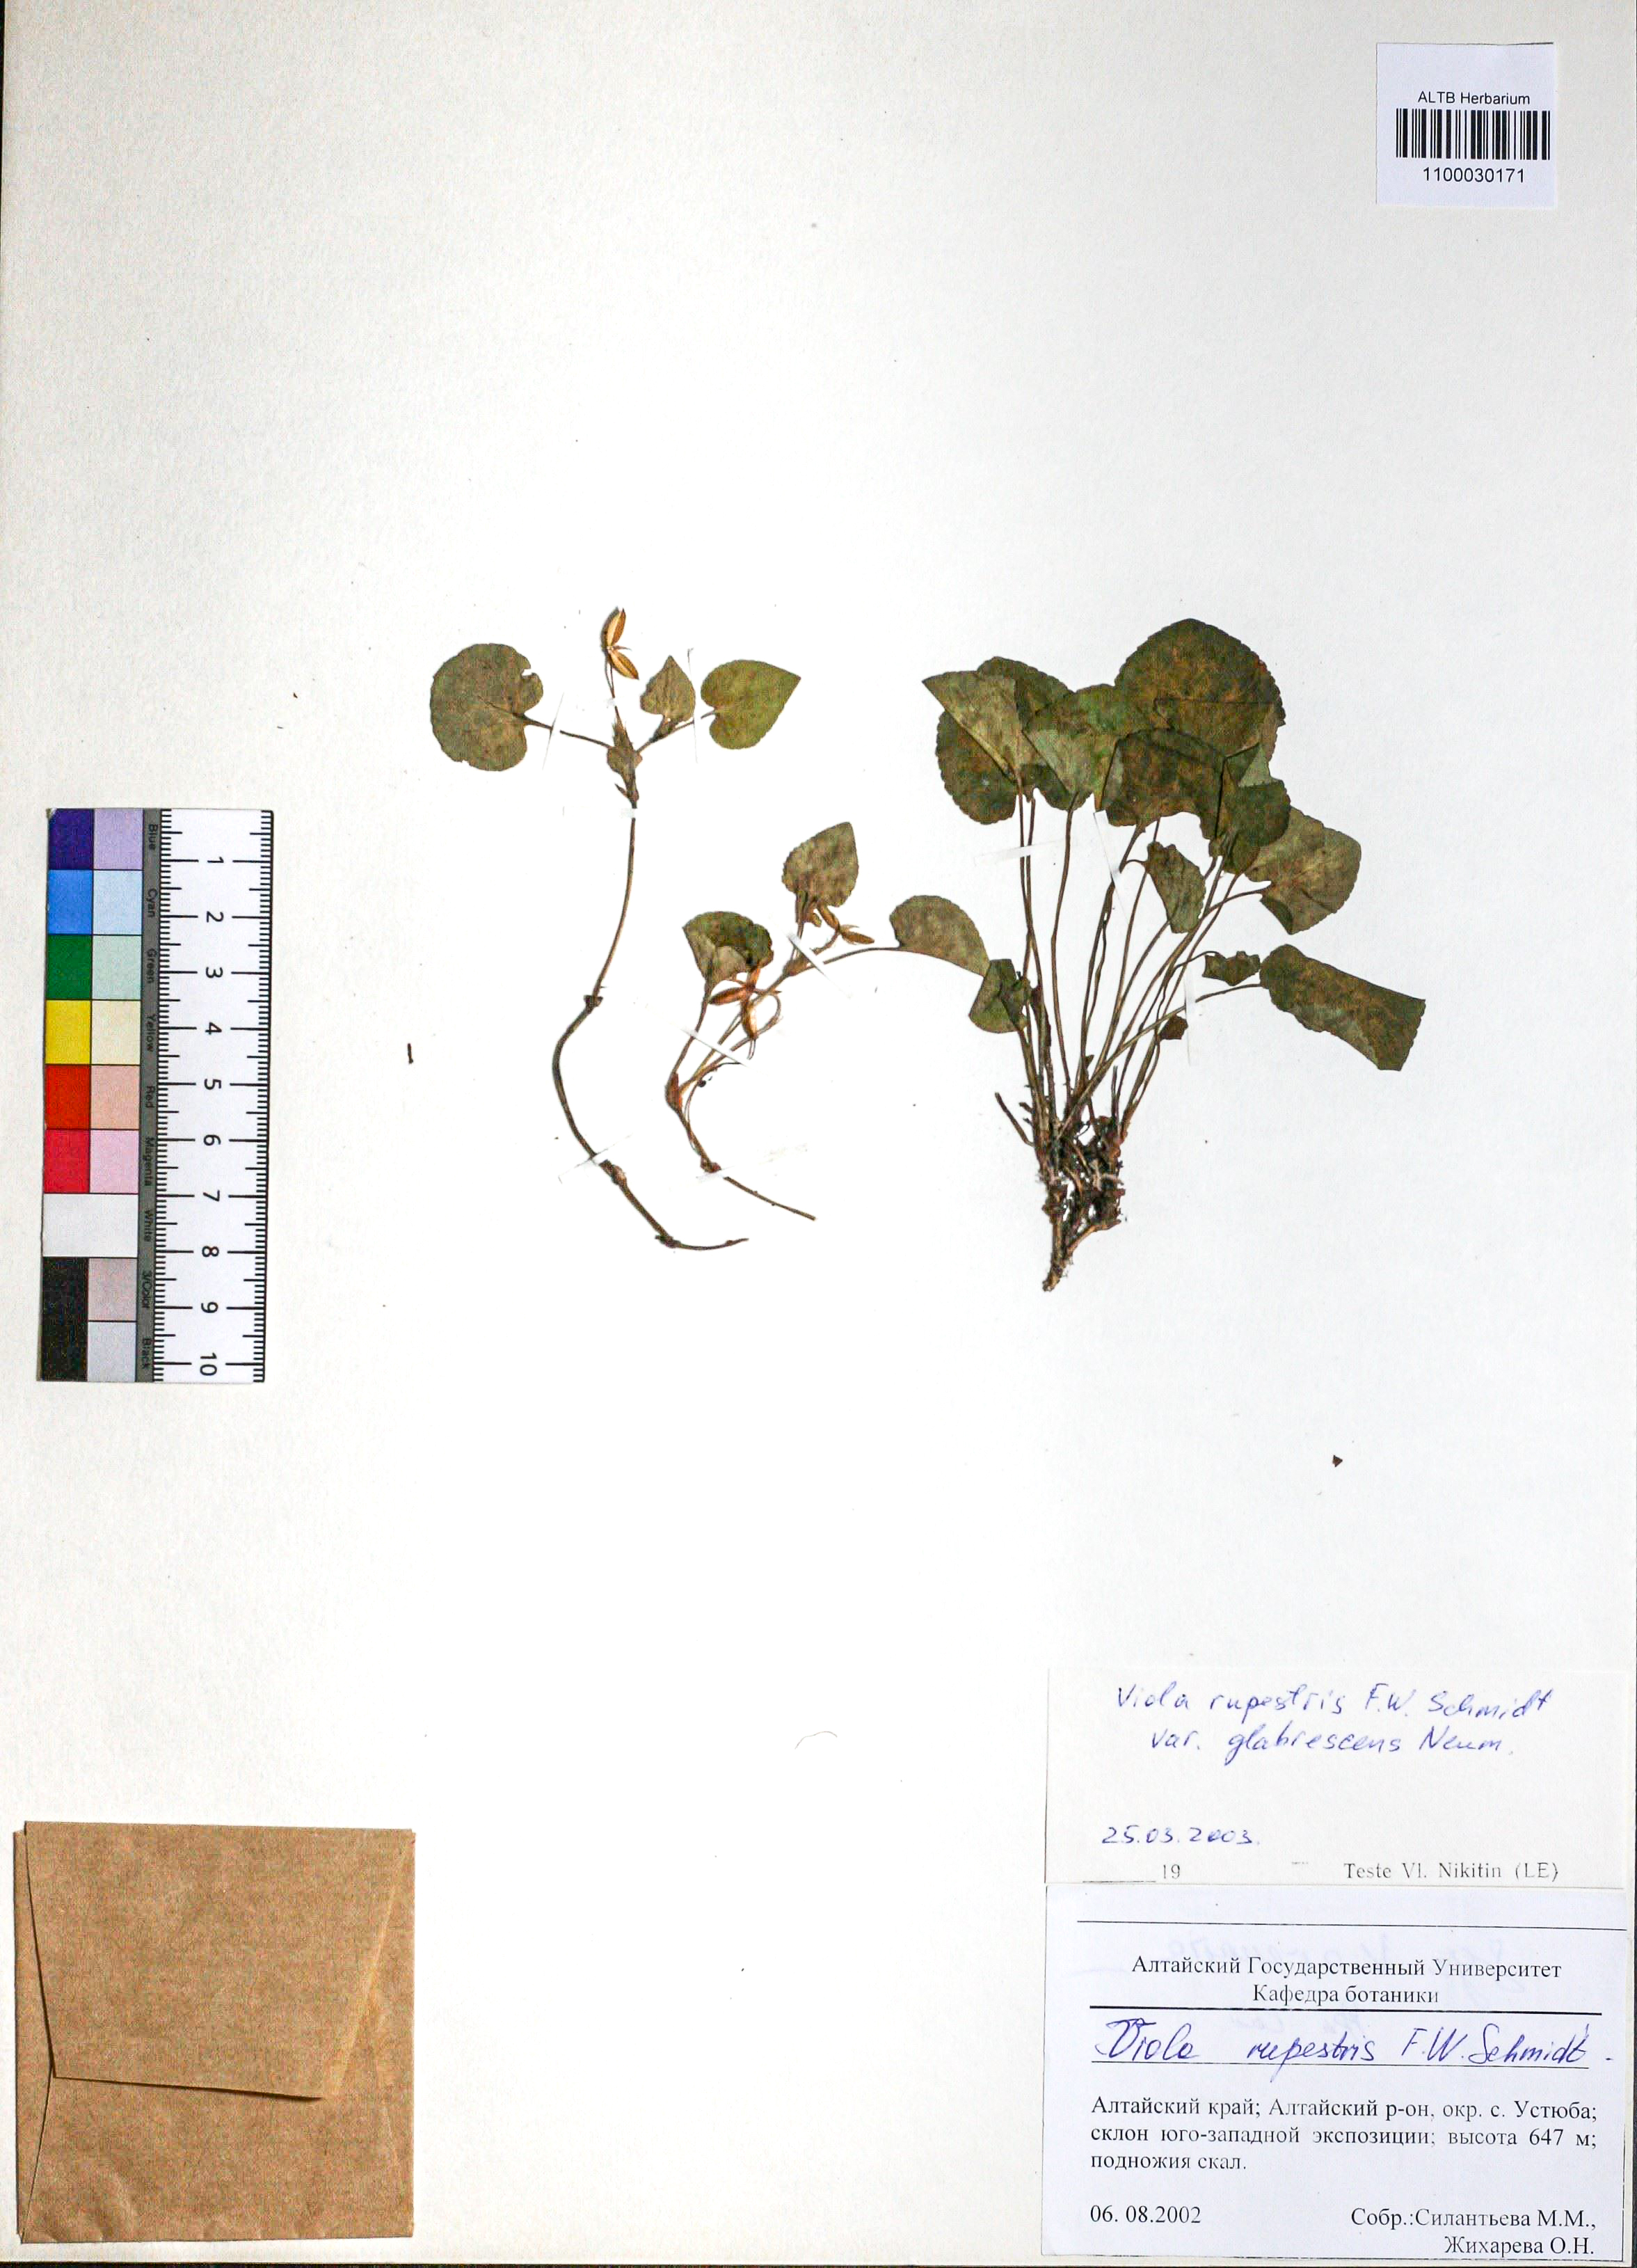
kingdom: Plantae
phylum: Tracheophyta
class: Magnoliopsida
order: Malpighiales
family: Violaceae
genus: Viola
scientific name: Viola rupestris
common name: Teesdale violet
